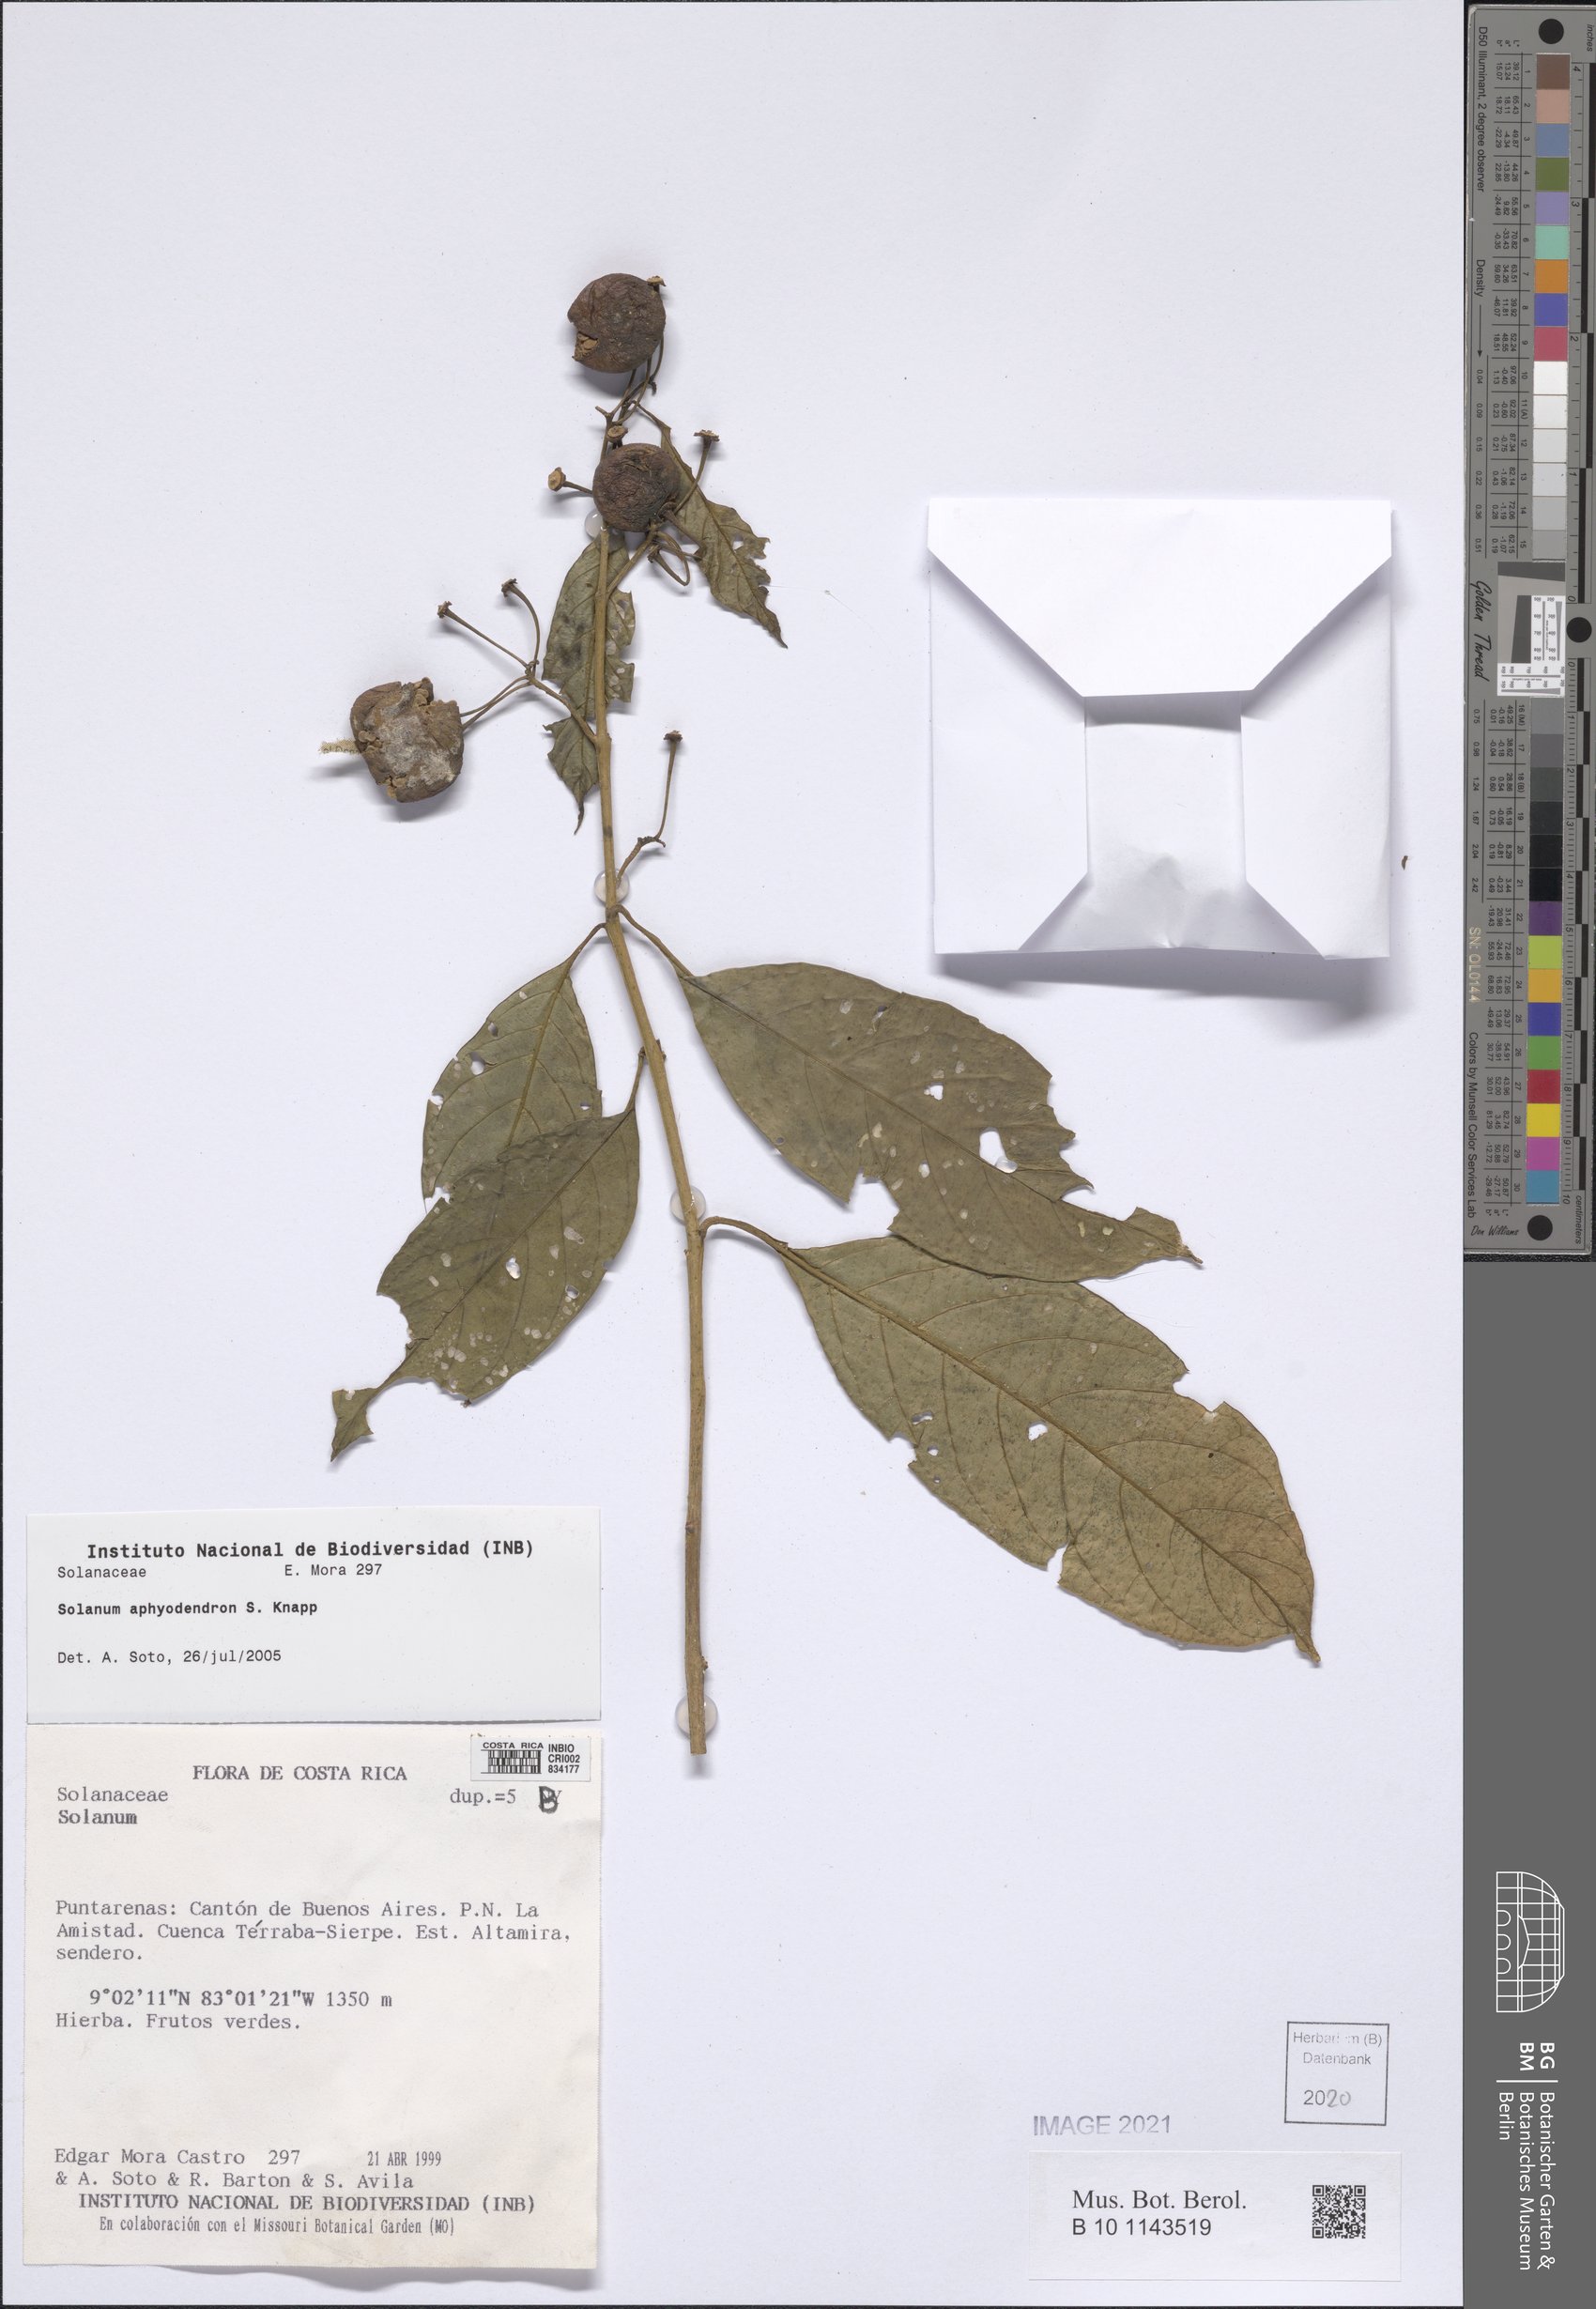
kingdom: Plantae
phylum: Tracheophyta
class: Magnoliopsida
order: Solanales
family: Solanaceae
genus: Solanum
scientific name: Solanum aphyodendron
